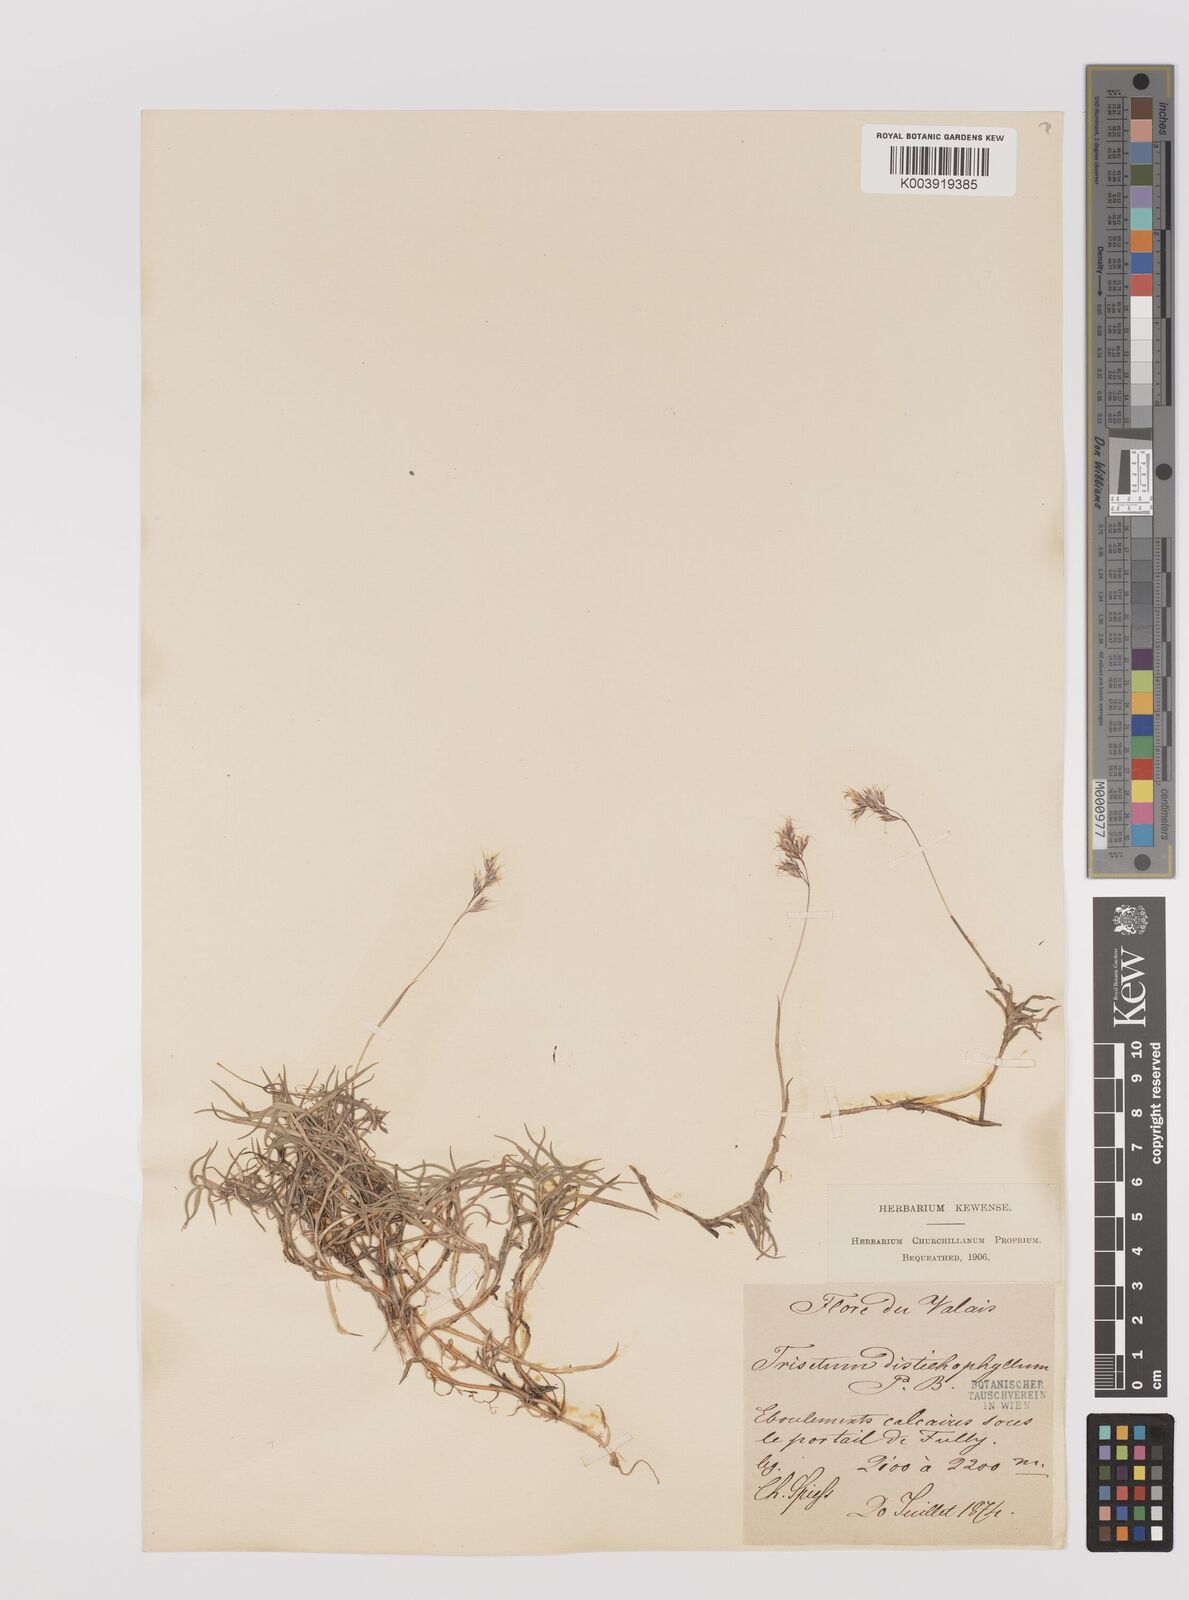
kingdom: Plantae
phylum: Tracheophyta
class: Liliopsida
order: Poales
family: Poaceae
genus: Acrospelion
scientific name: Acrospelion distichophyllum
